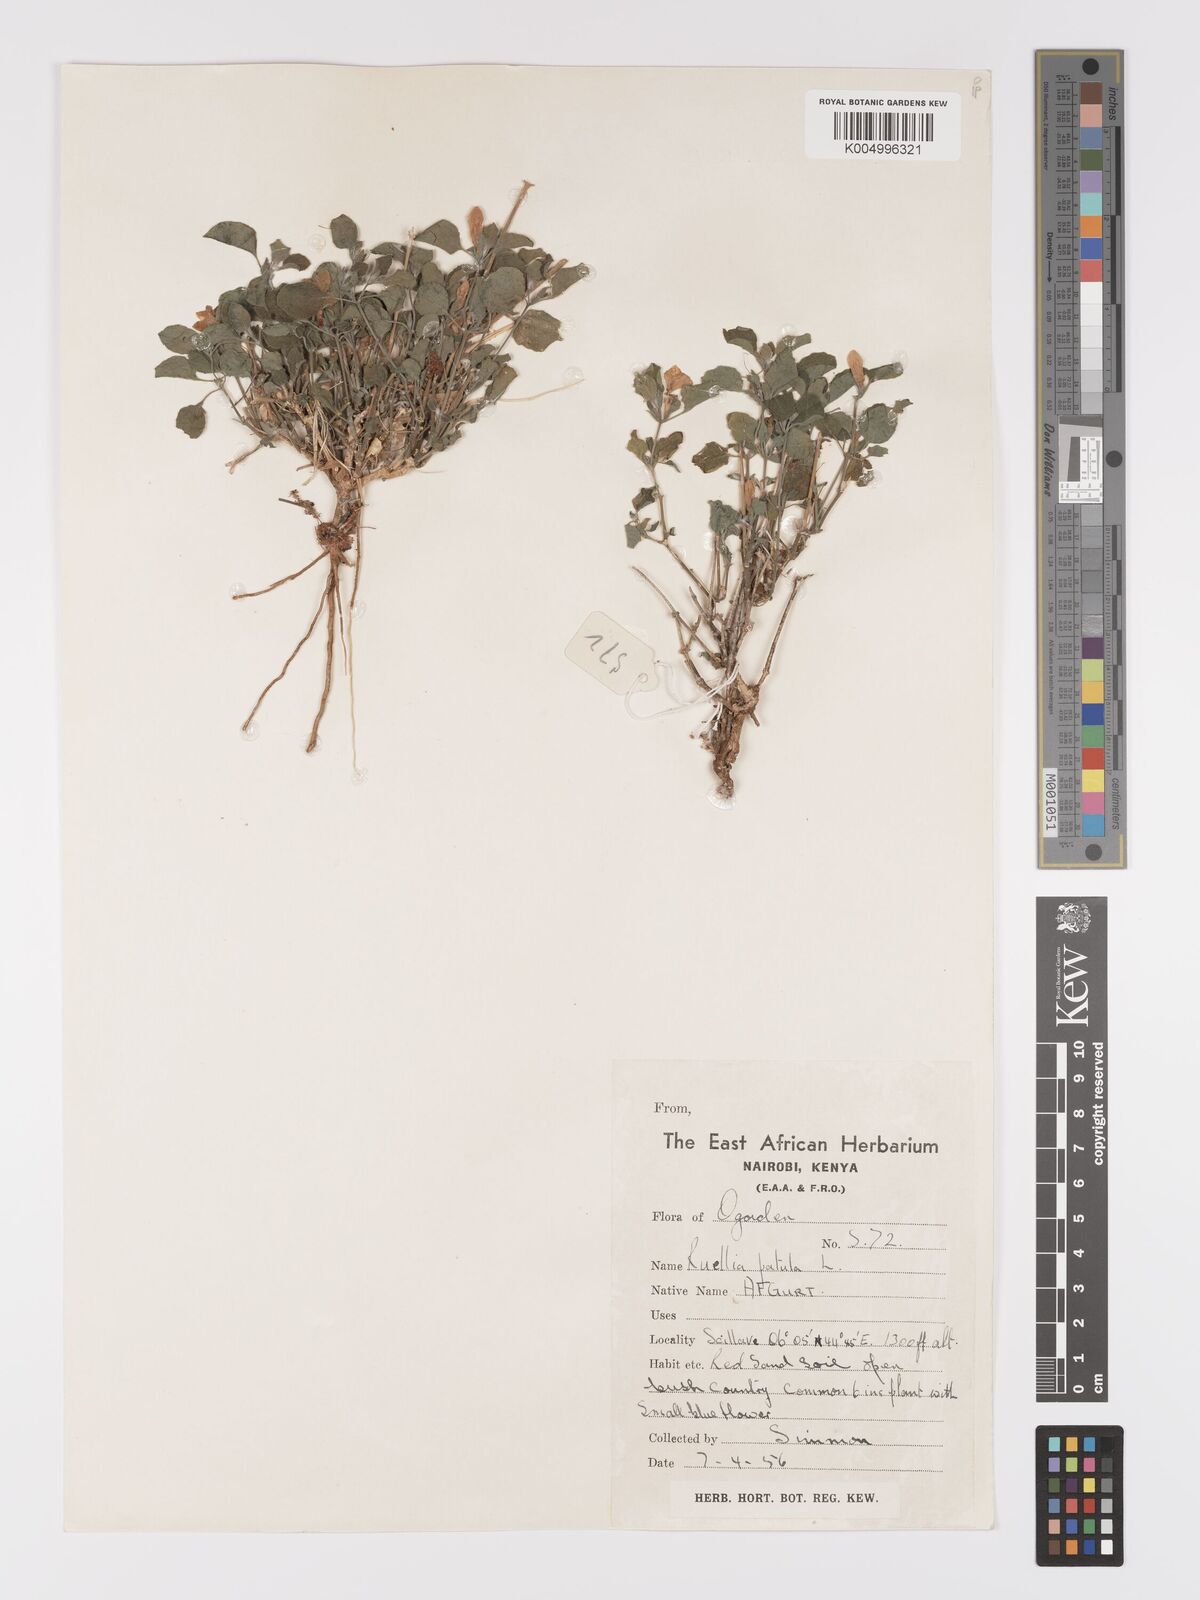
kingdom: Plantae
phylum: Tracheophyta
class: Magnoliopsida
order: Lamiales
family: Acanthaceae
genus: Ruellia
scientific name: Ruellia patula
